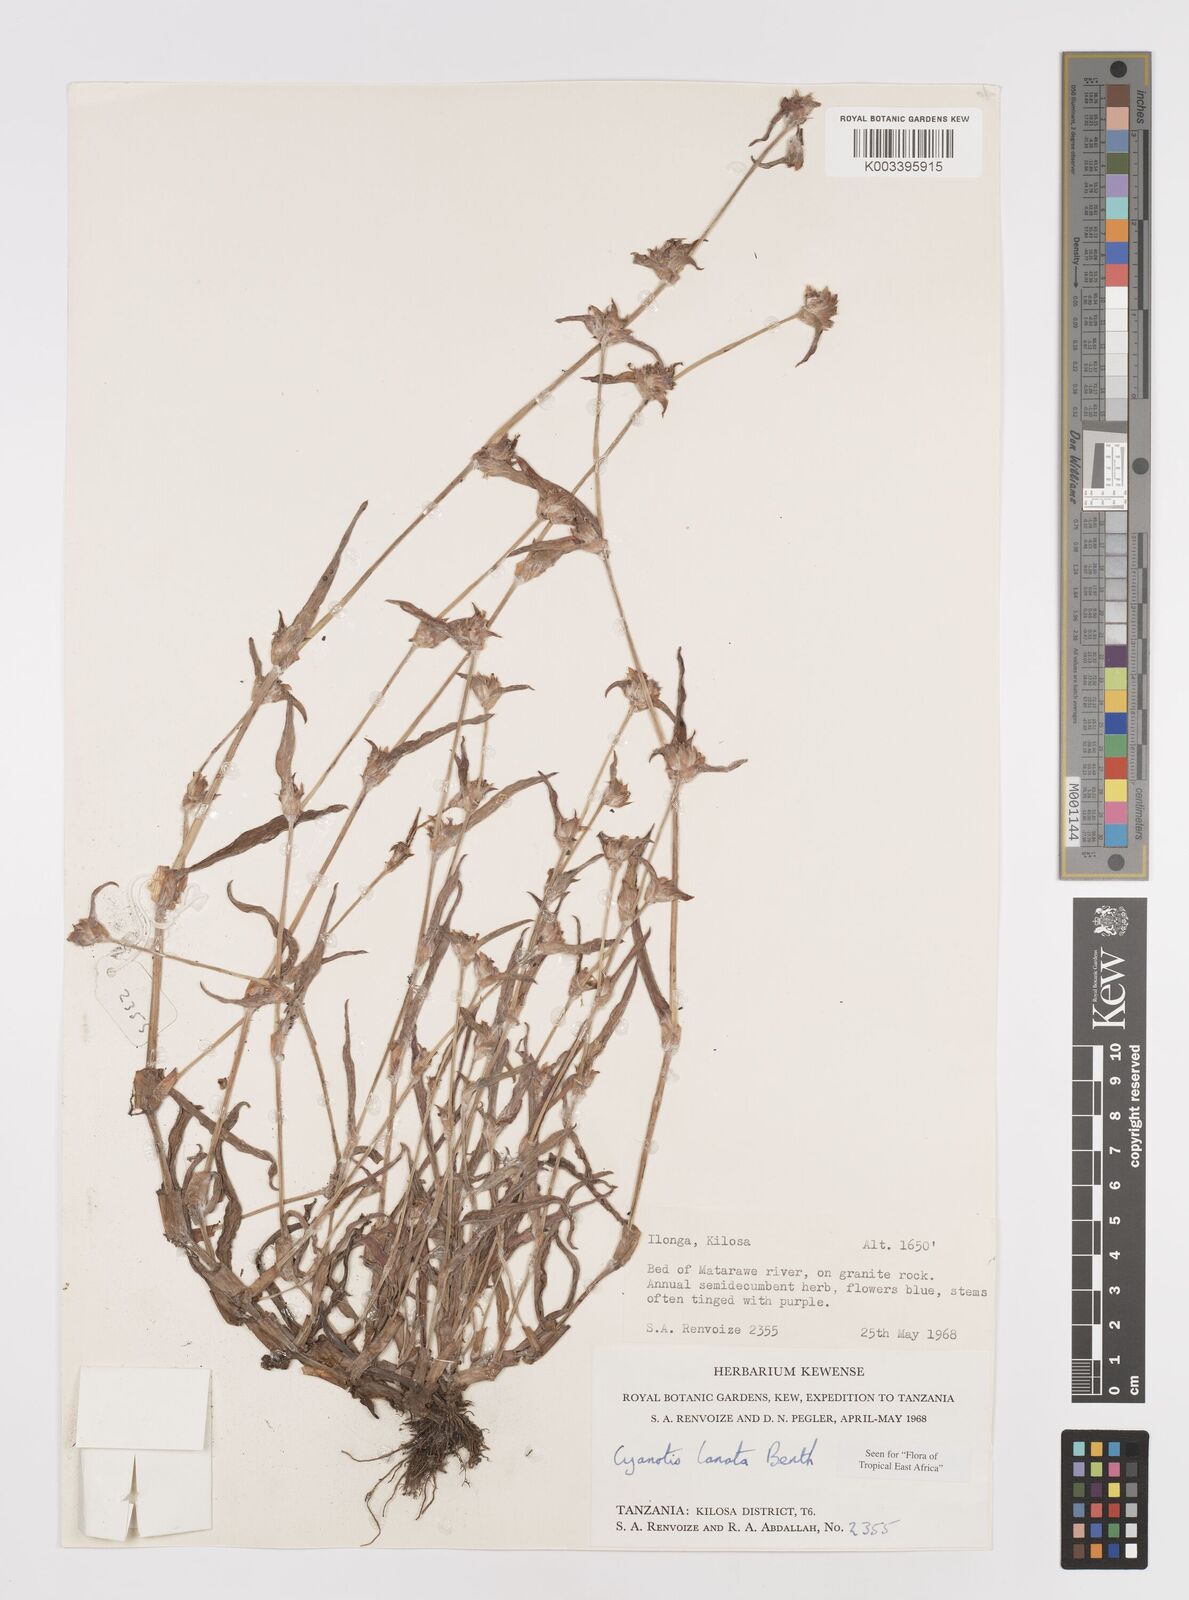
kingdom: Plantae
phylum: Tracheophyta
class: Liliopsida
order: Commelinales
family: Commelinaceae
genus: Cyanotis
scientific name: Cyanotis lanata
